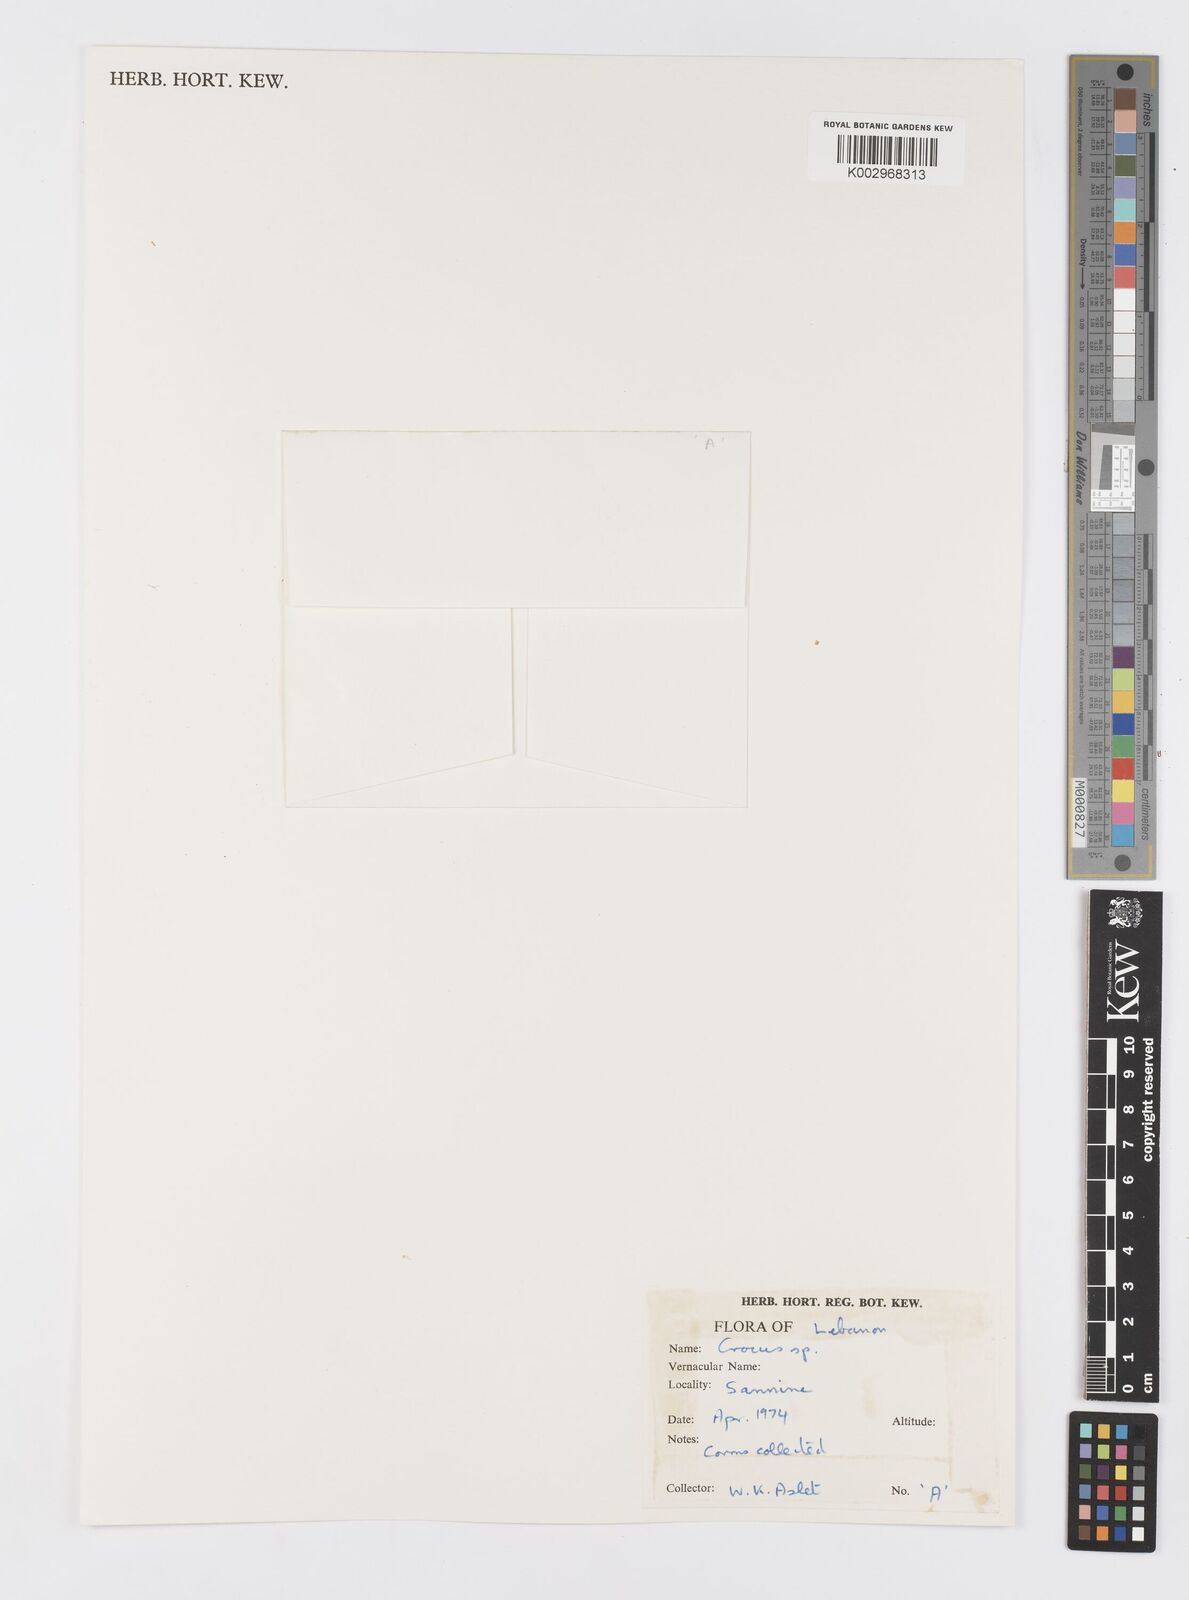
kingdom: Plantae
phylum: Tracheophyta
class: Liliopsida
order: Asparagales
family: Iridaceae
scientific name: Iridaceae
